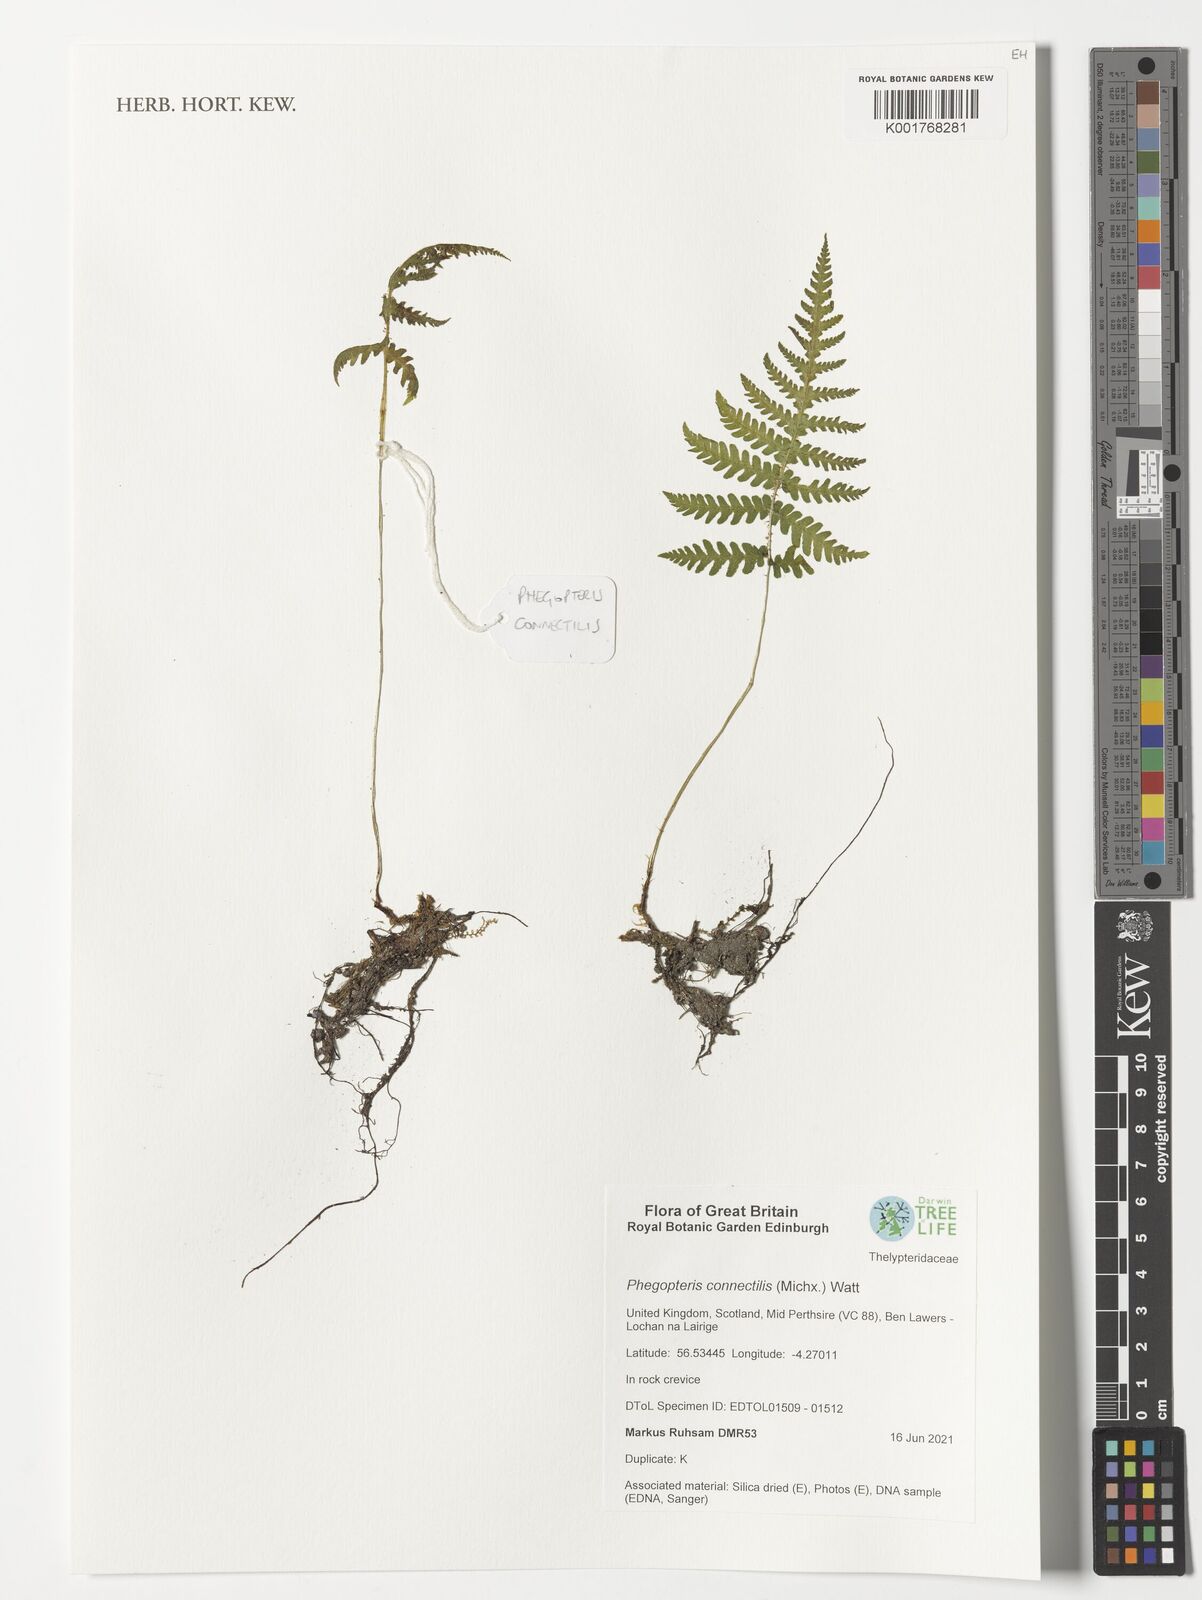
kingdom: Plantae
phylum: Tracheophyta
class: Polypodiopsida
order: Polypodiales
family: Thelypteridaceae
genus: Phegopteris
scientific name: Phegopteris connectilis
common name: Beech fern
